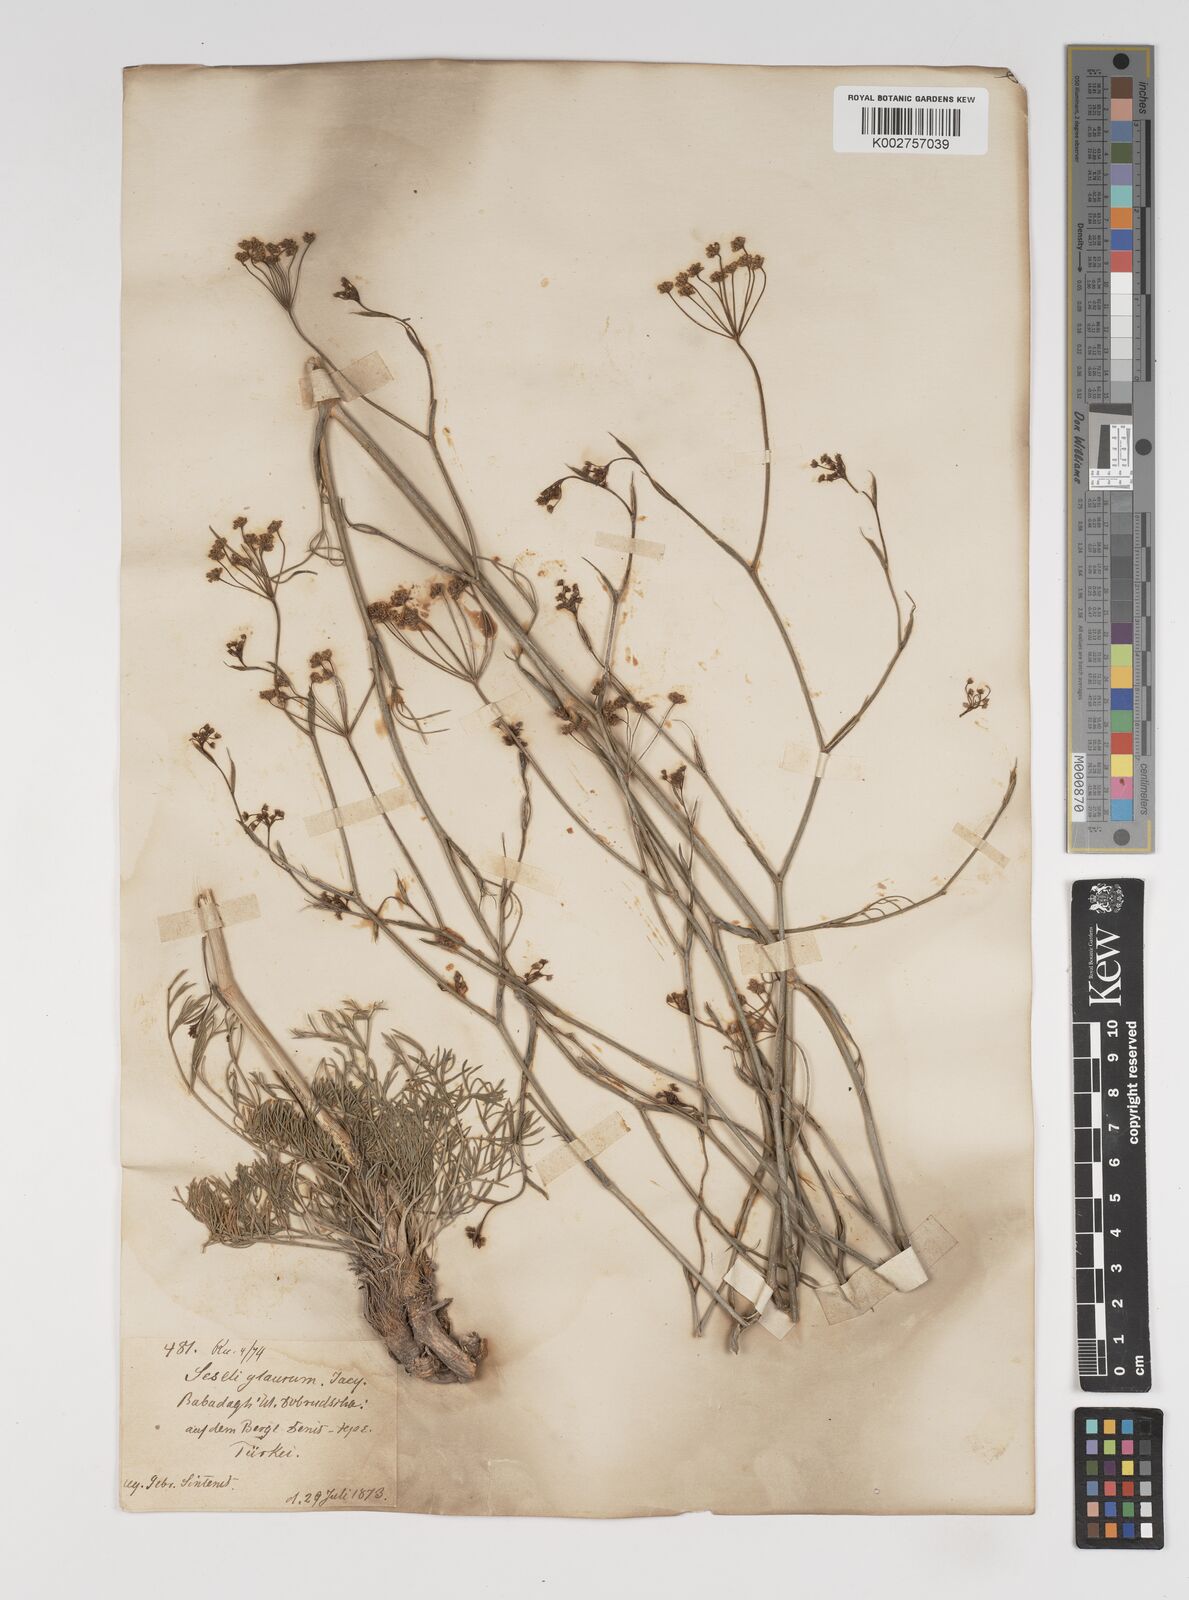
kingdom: Plantae
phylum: Tracheophyta
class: Magnoliopsida
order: Apiales
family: Apiaceae
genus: Seseli
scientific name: Seseli montanum
